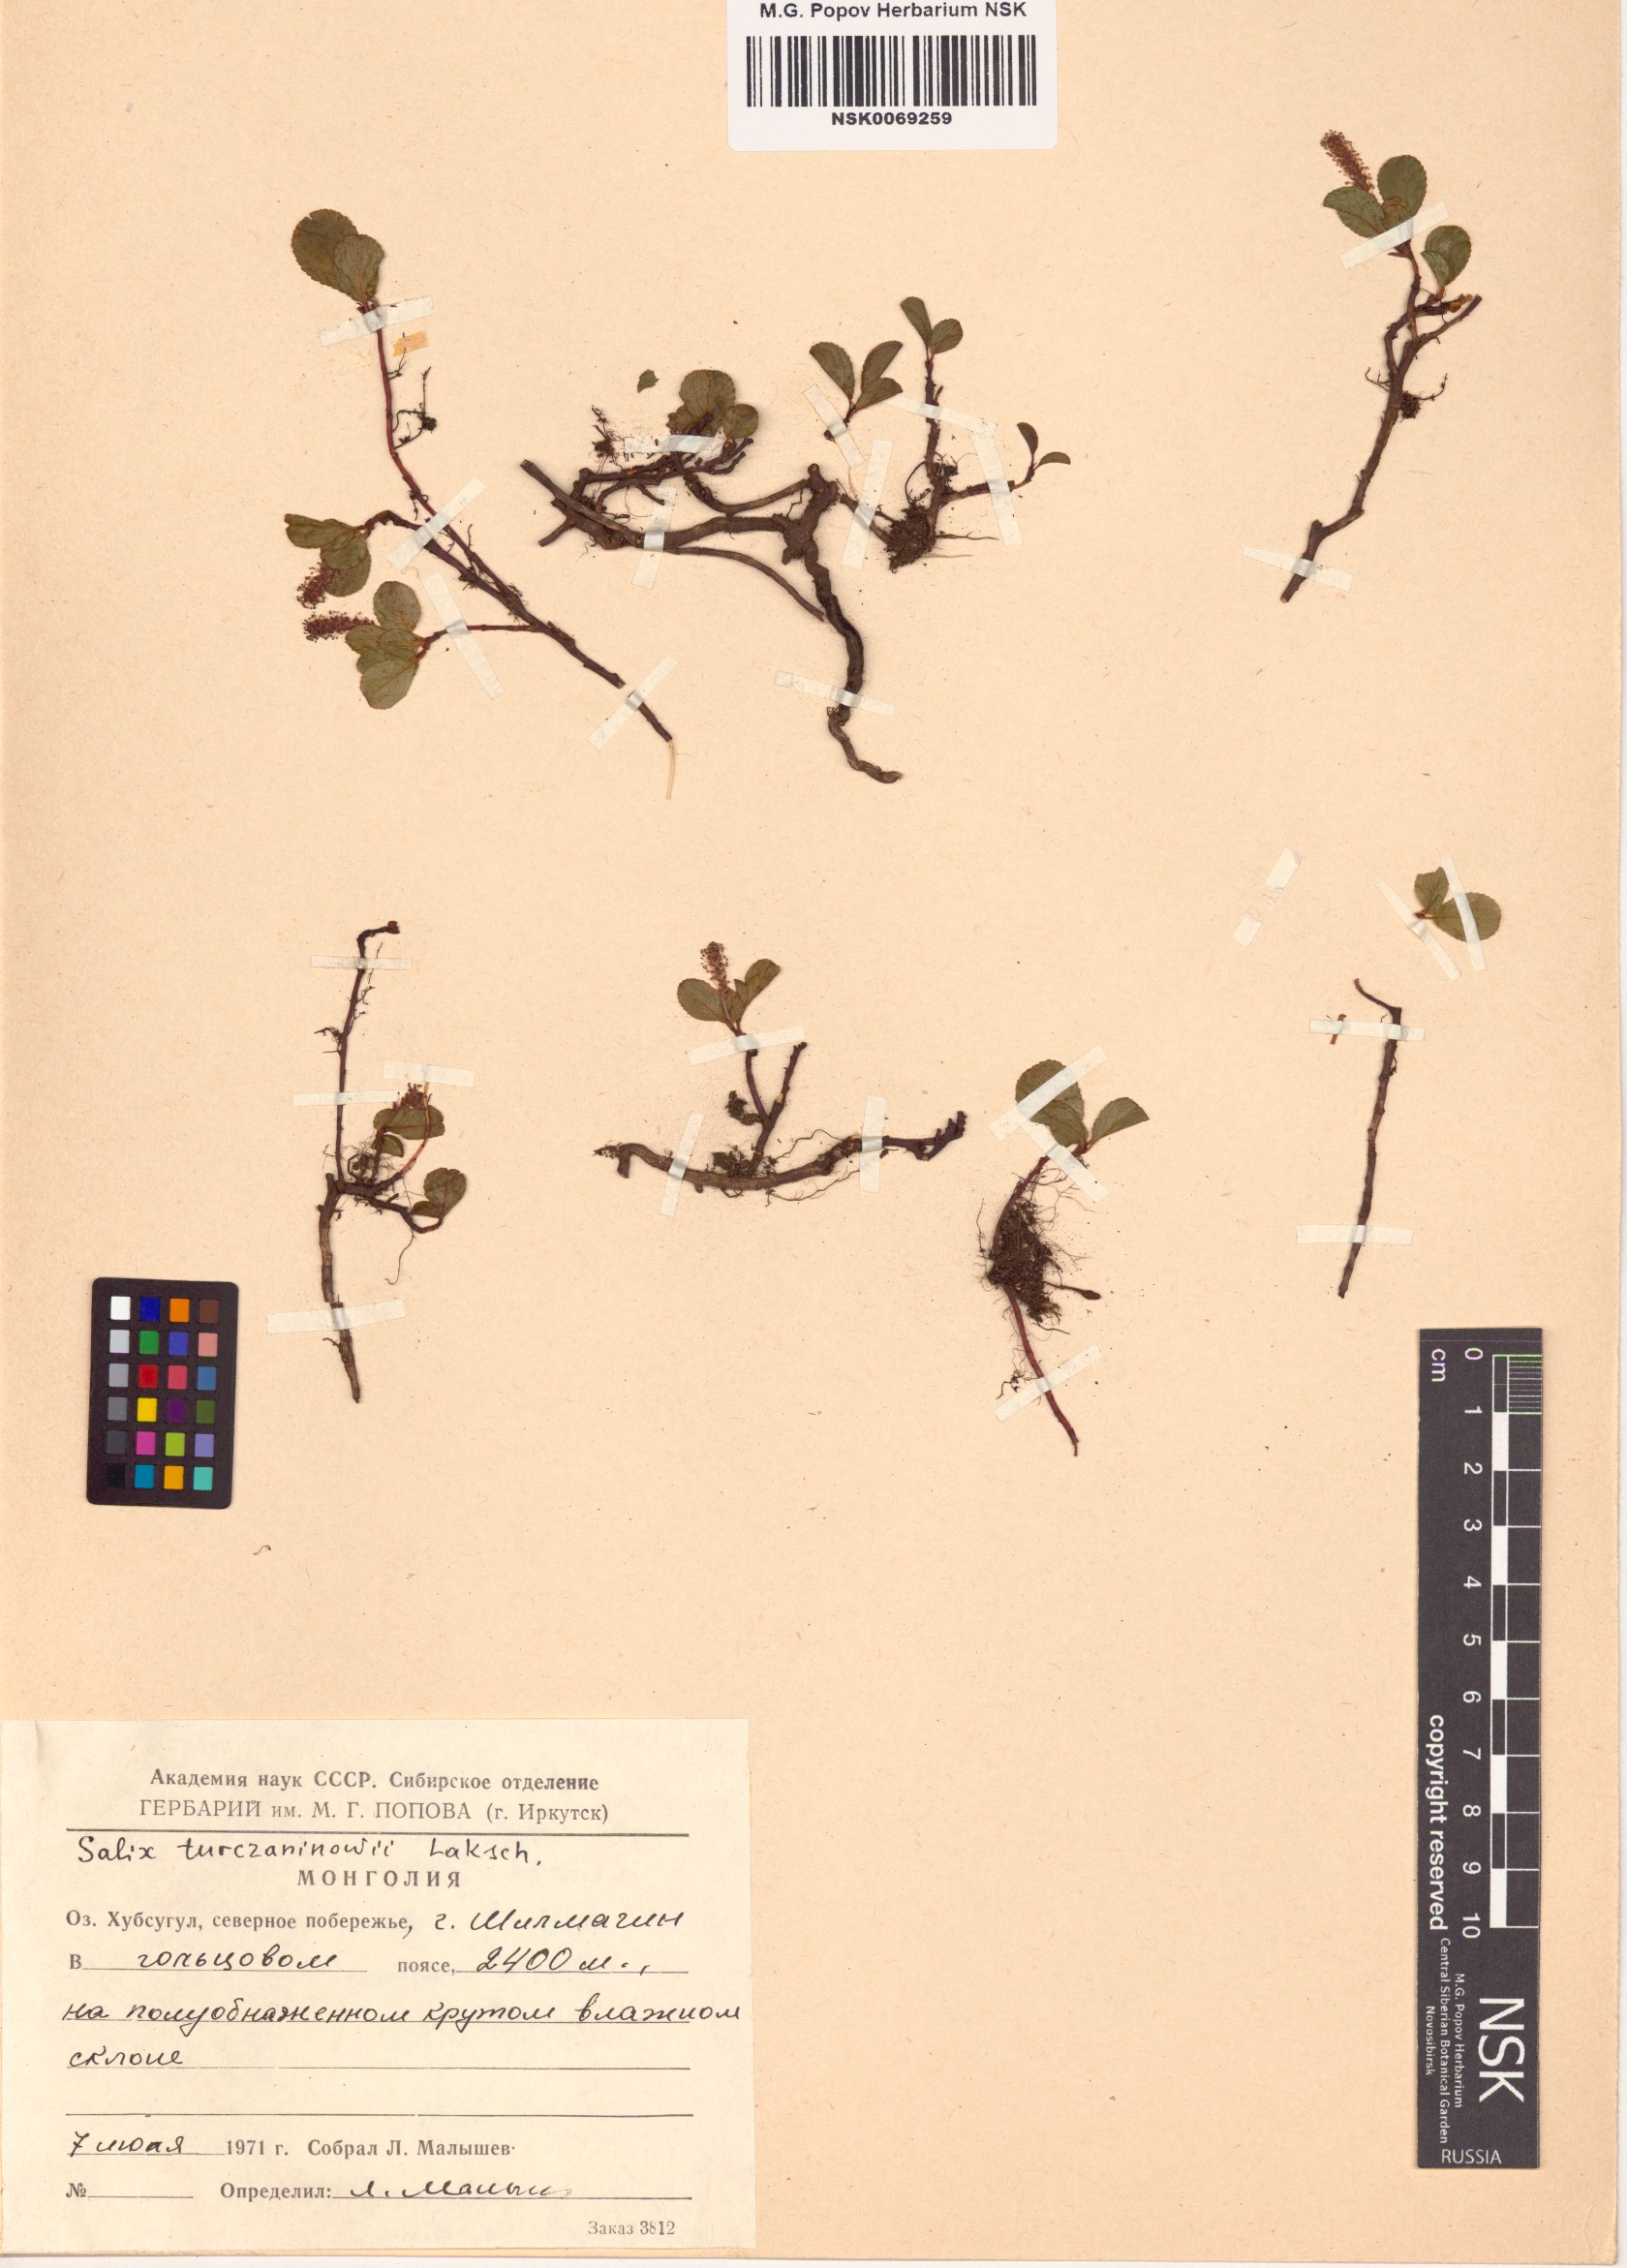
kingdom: Plantae
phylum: Tracheophyta
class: Magnoliopsida
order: Malpighiales
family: Salicaceae
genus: Salix
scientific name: Salix turczaninowii
